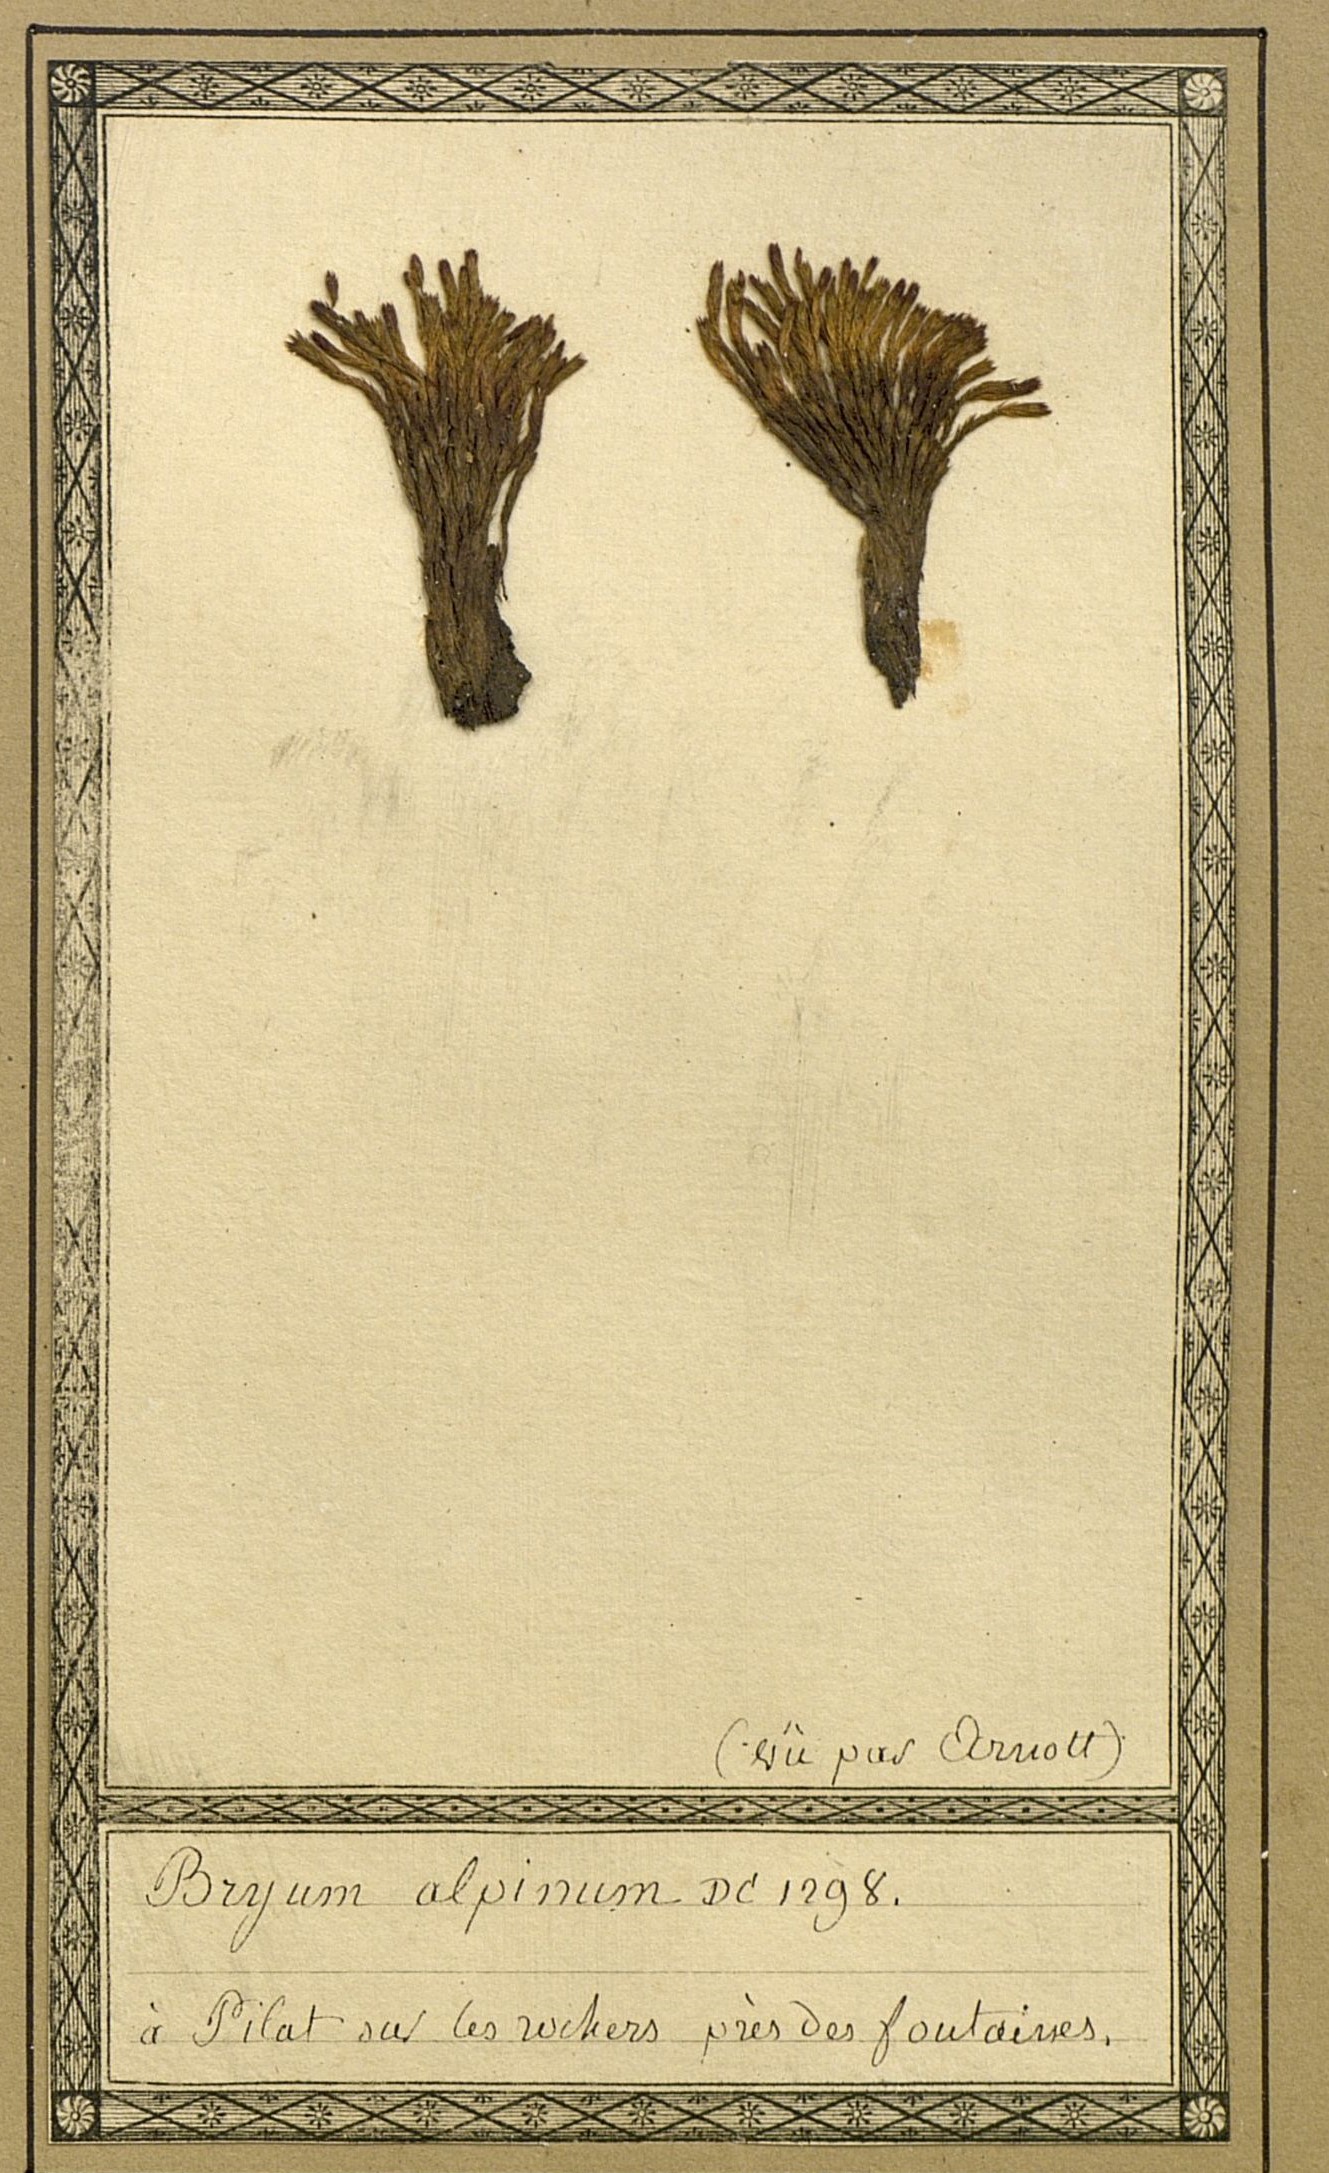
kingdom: Plantae
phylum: Bryophyta
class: Bryopsida
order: Bryales
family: Bryaceae
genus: Imbribryum
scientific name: Imbribryum alpinum
